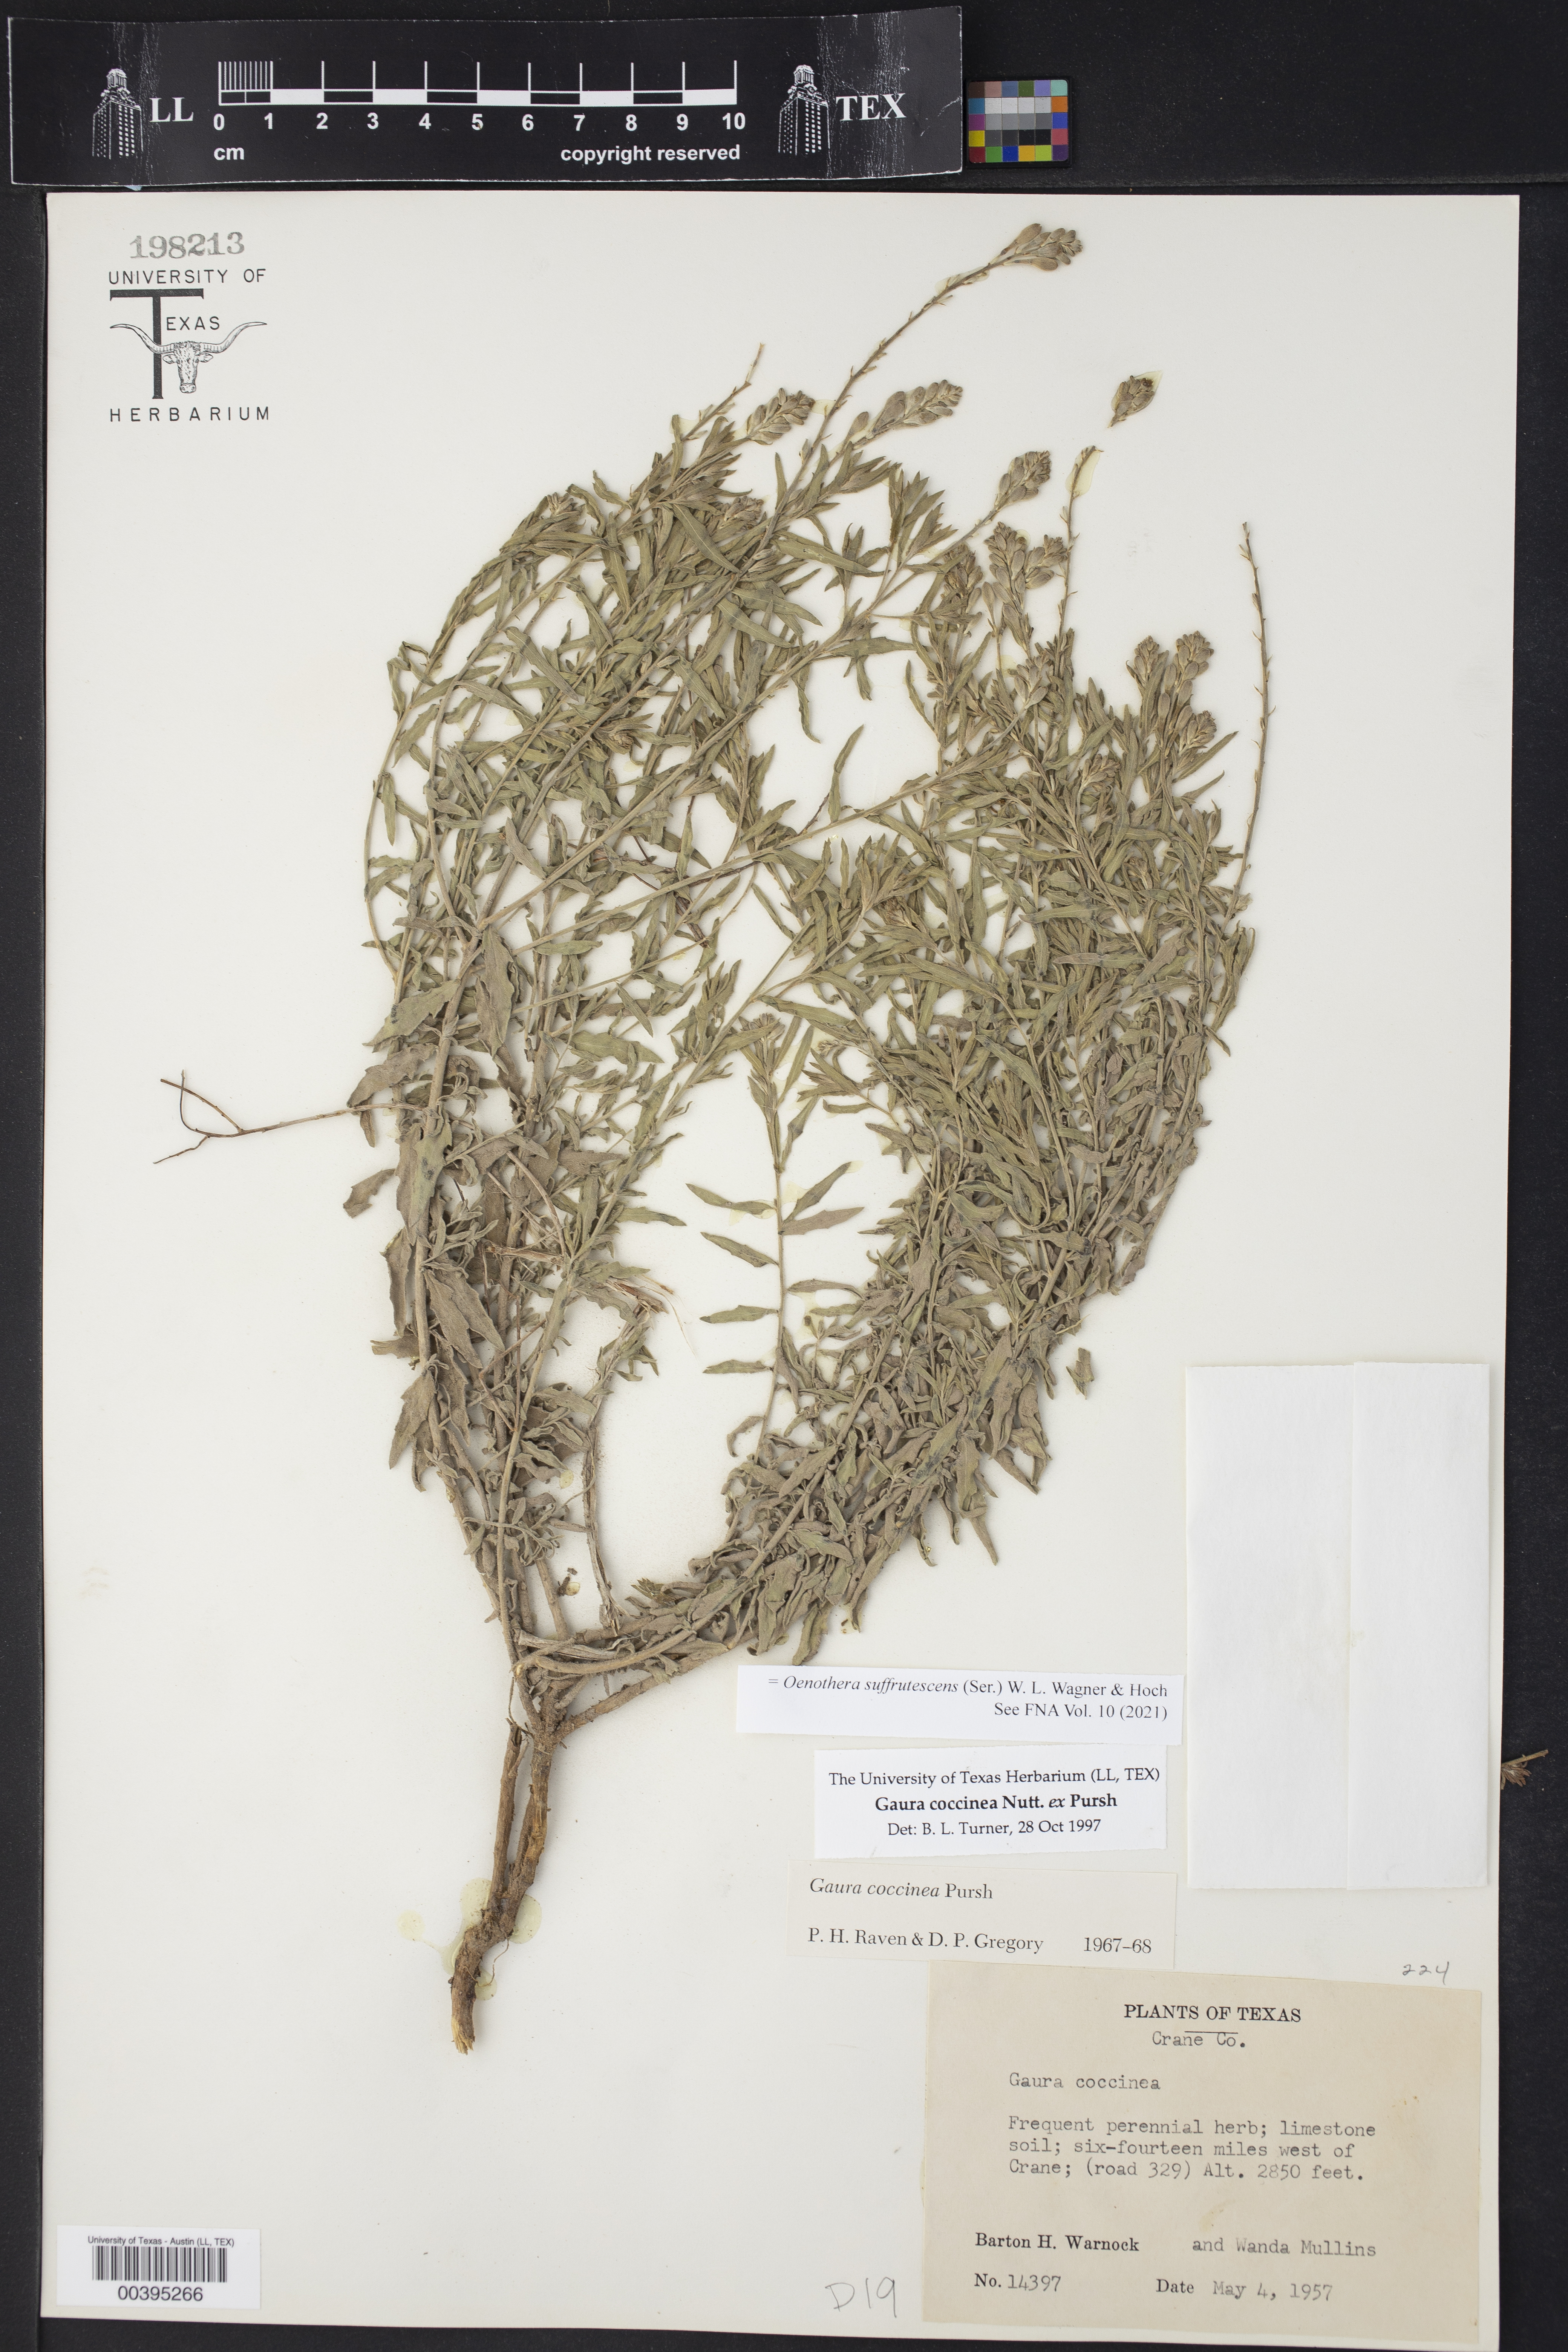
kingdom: Plantae
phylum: Tracheophyta
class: Magnoliopsida
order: Myrtales
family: Onagraceae
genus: Oenothera
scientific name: Oenothera suffrutescens
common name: Scarlet beeblossom
